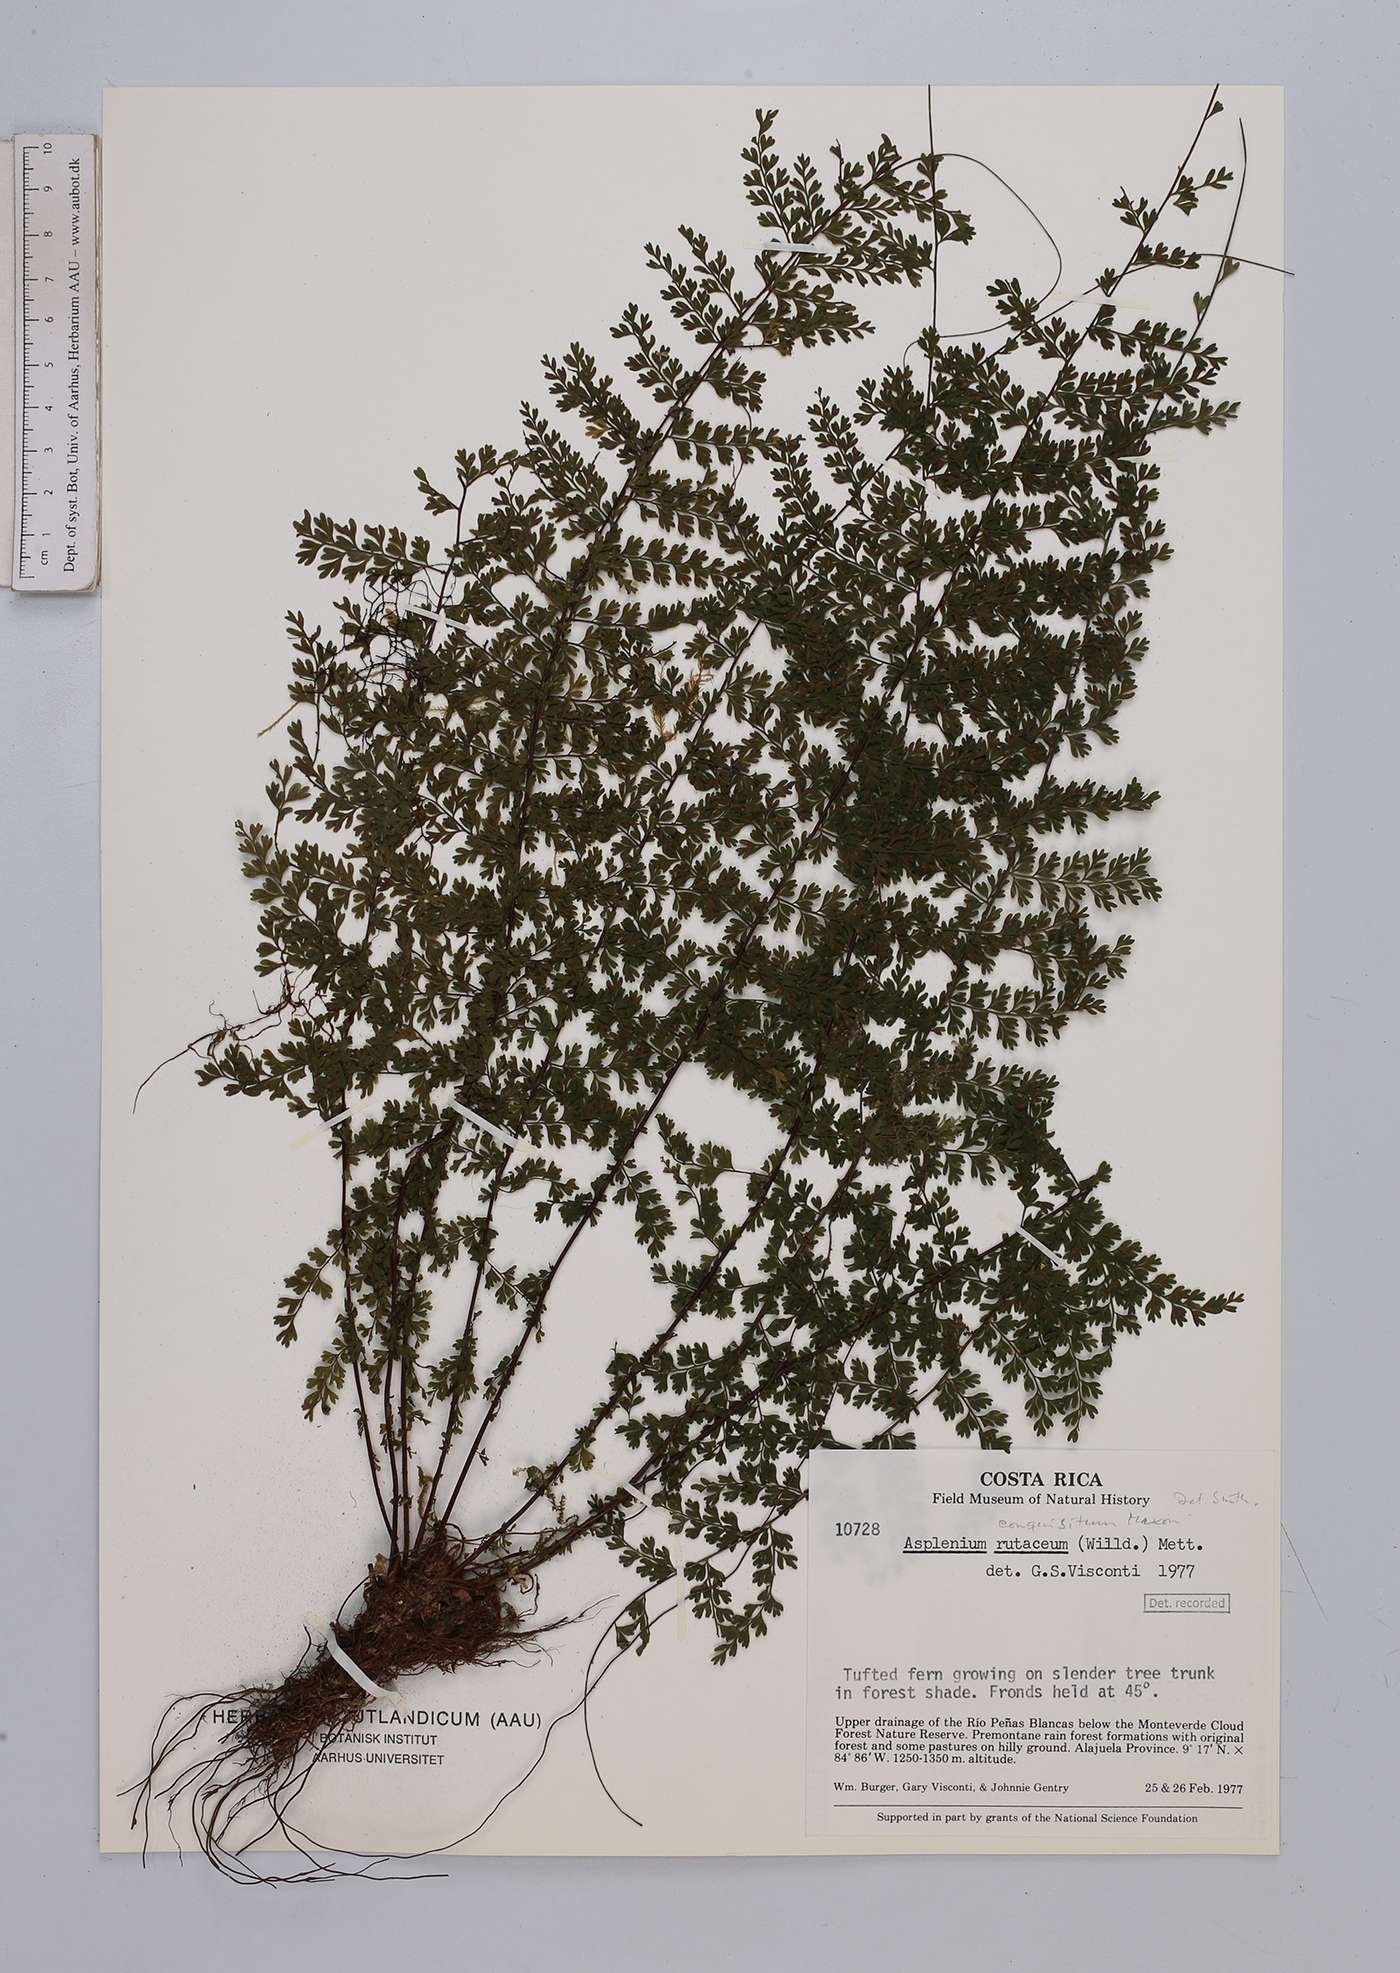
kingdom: Plantae
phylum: Tracheophyta
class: Polypodiopsida
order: Polypodiales
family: Aspleniaceae
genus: Asplenium
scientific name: Asplenium rutaceum
